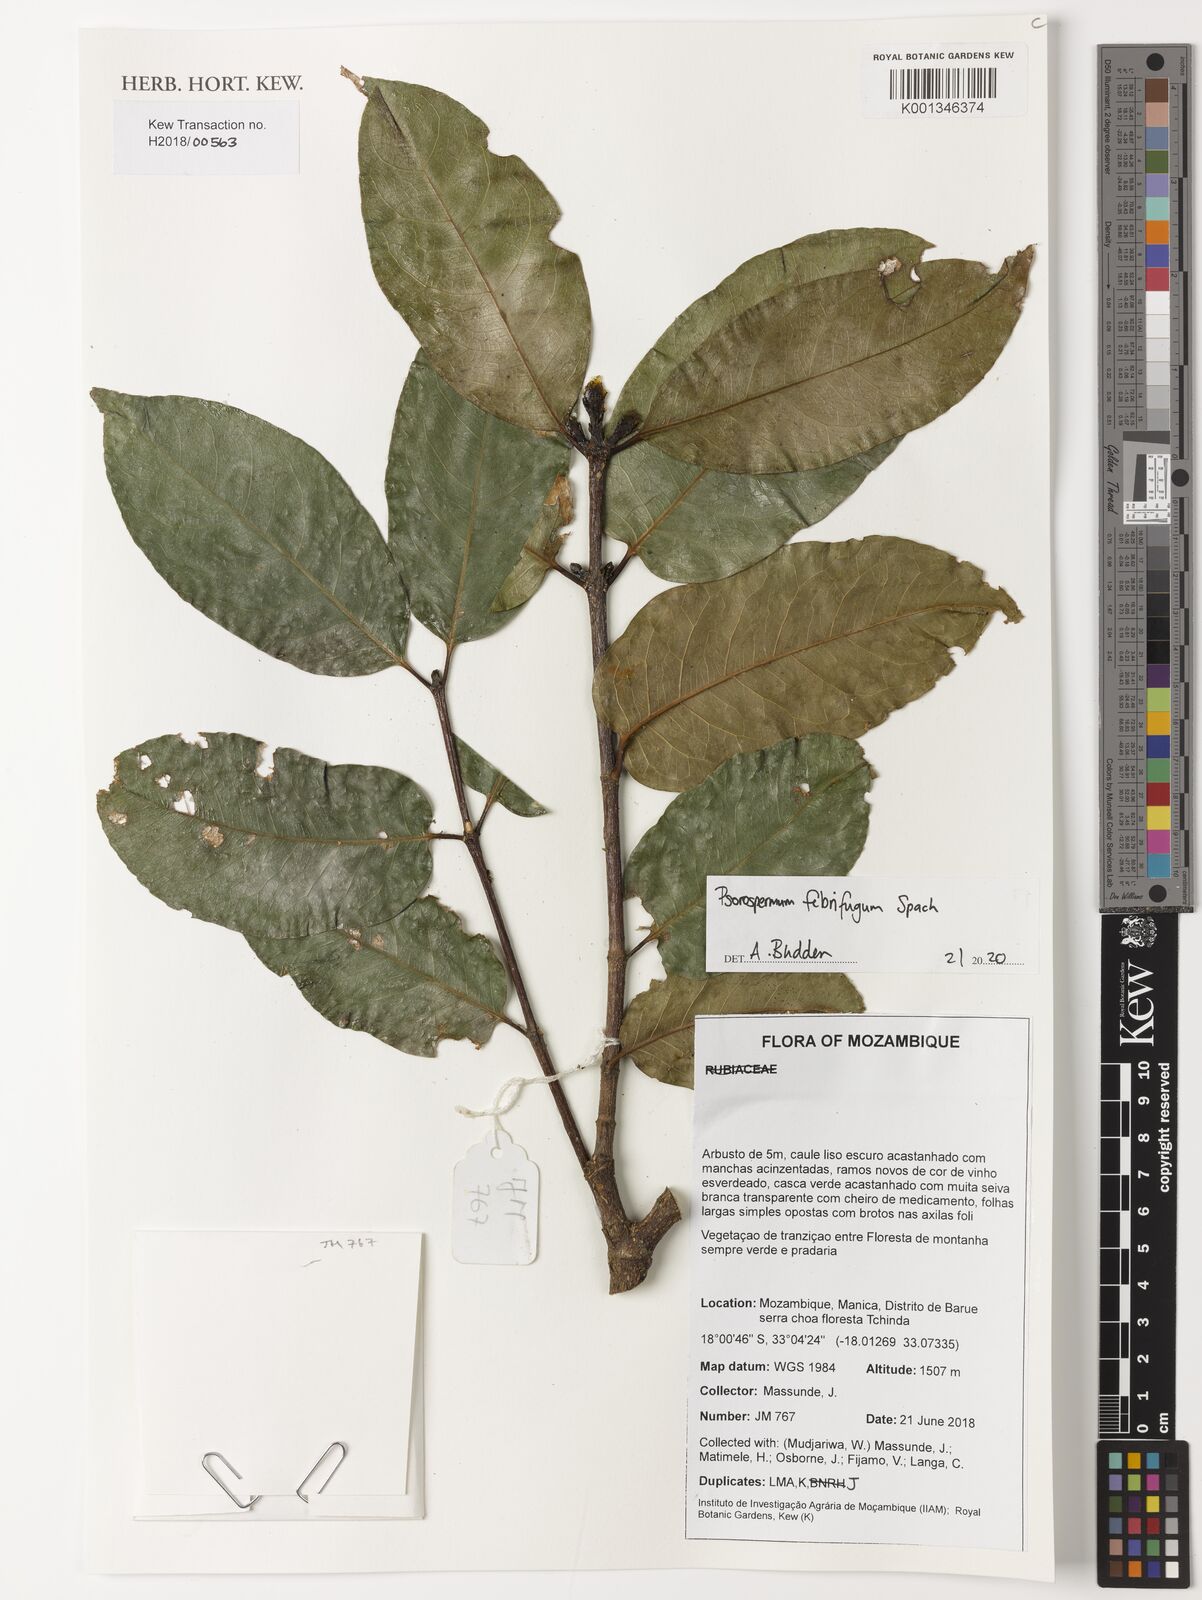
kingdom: Plantae
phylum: Tracheophyta
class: Magnoliopsida
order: Malpighiales
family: Hypericaceae
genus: Psorospermum
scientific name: Psorospermum febrifugum
